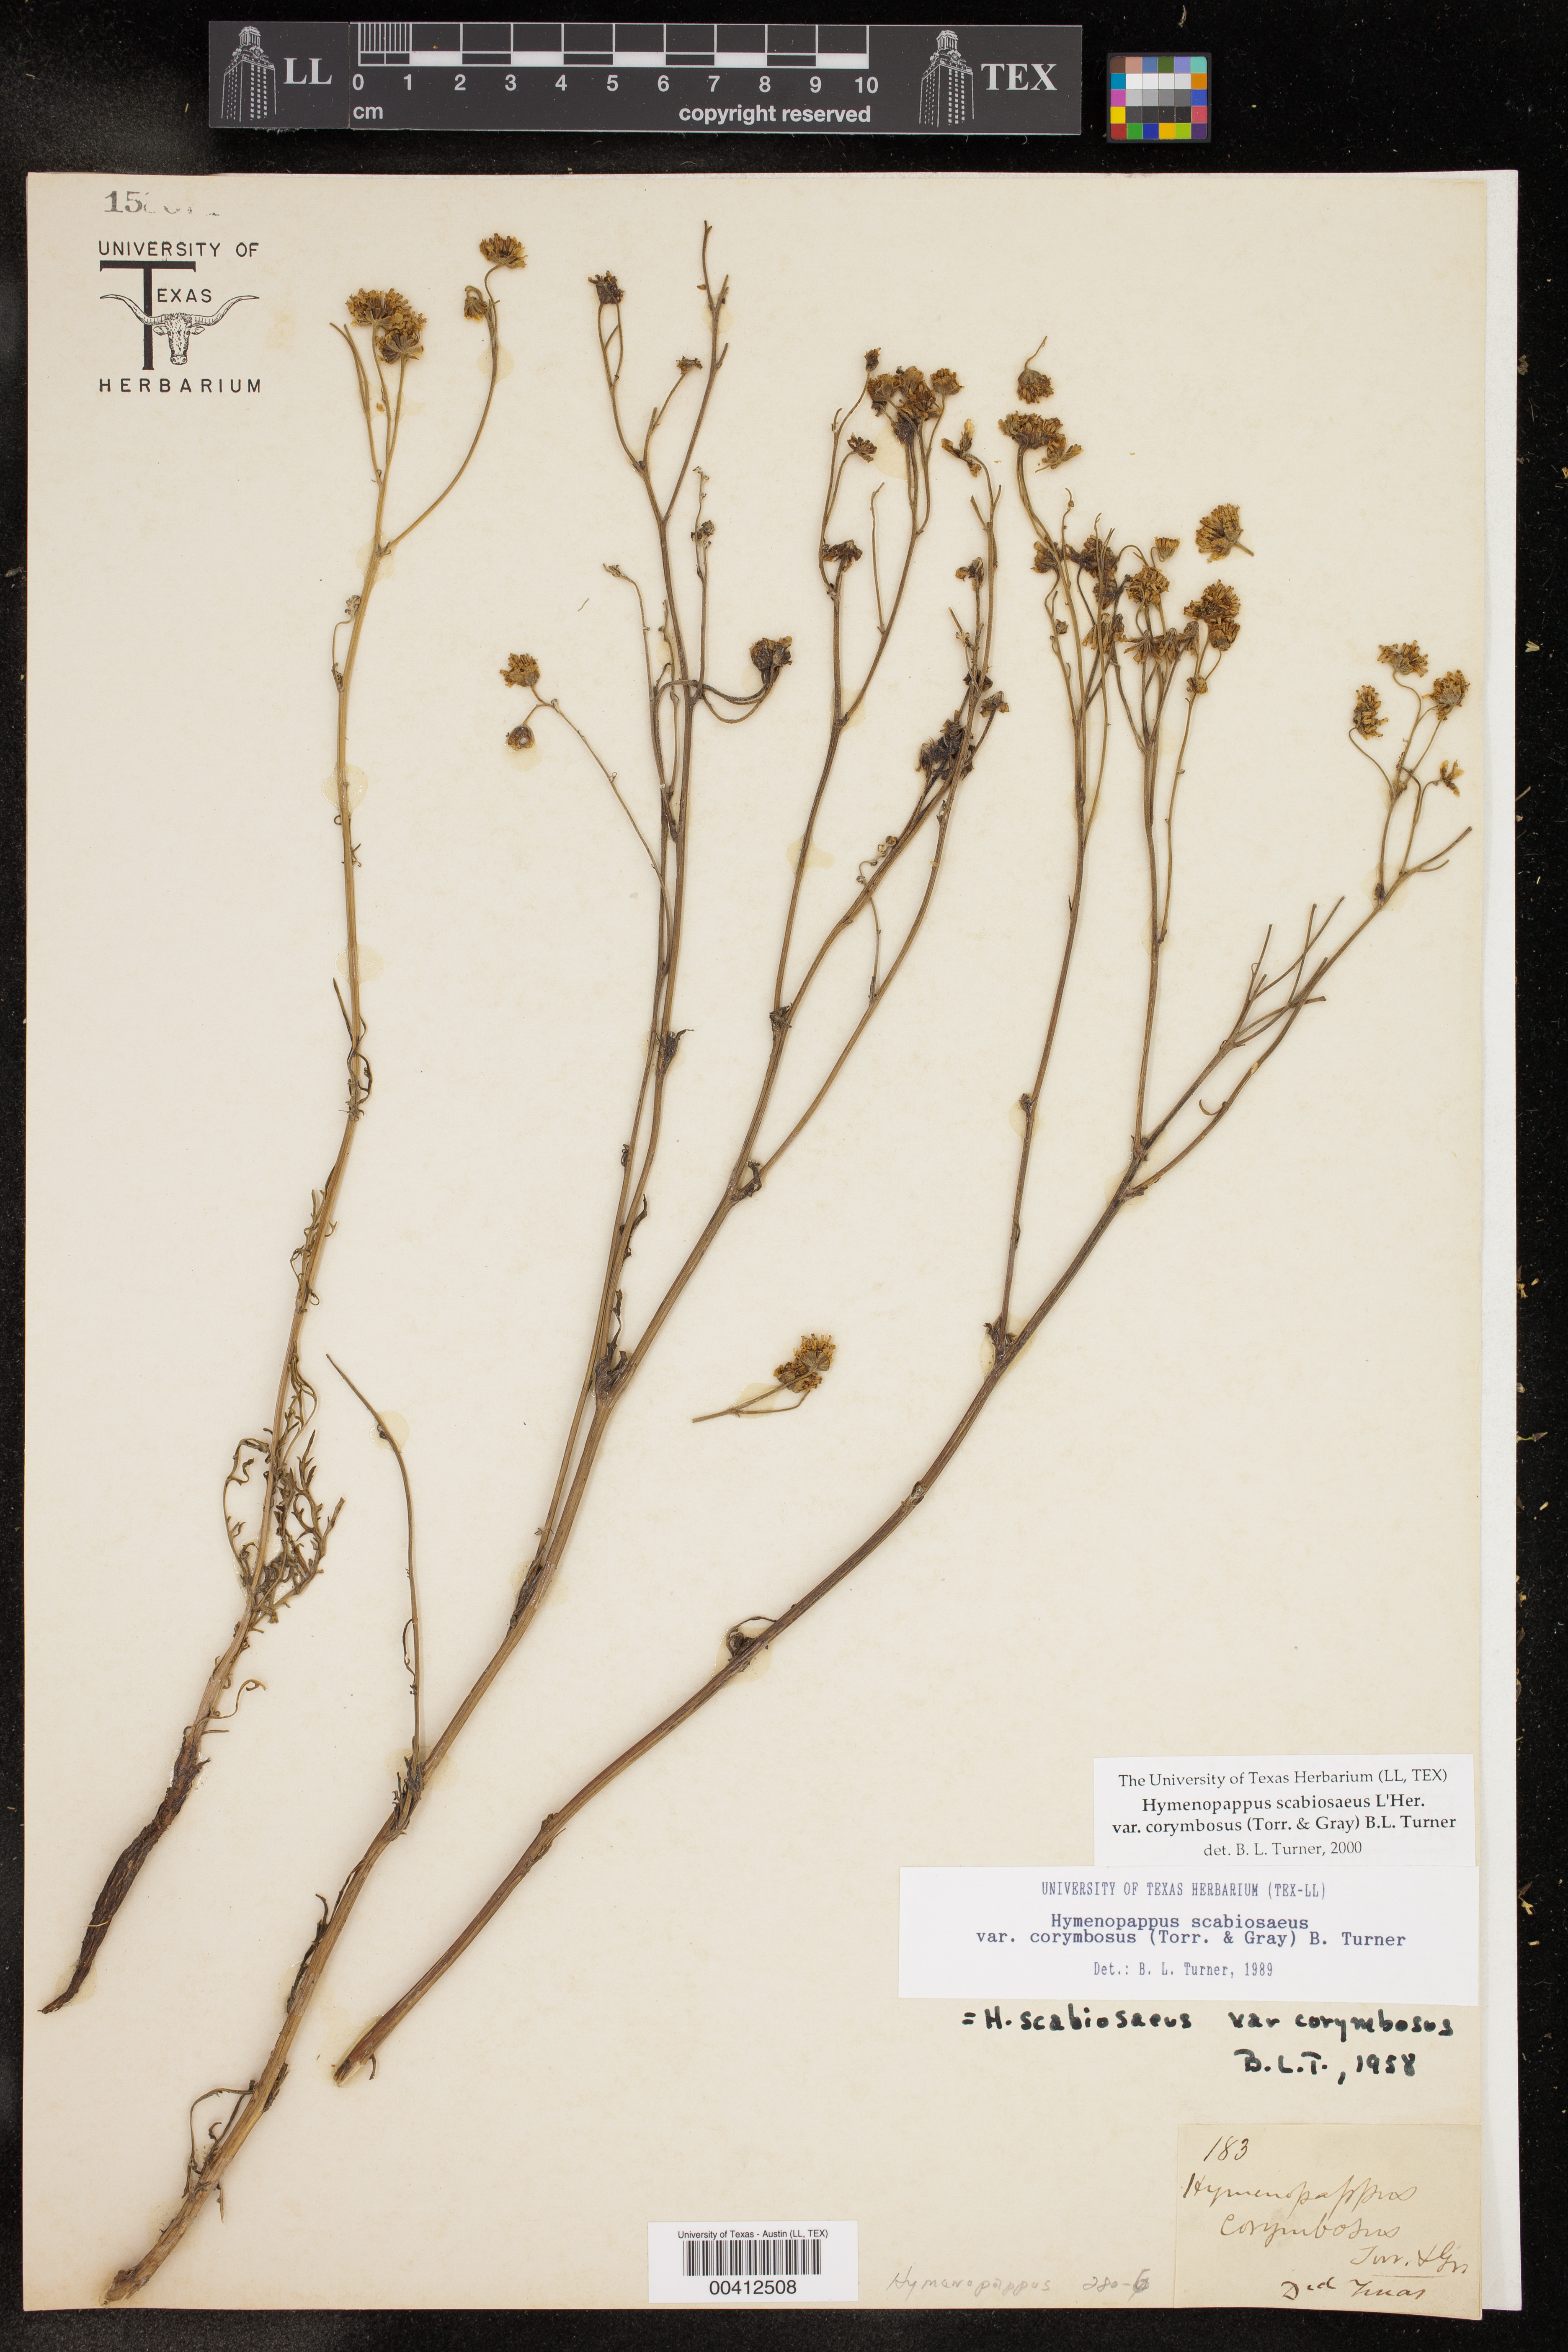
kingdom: Plantae
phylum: Tracheophyta
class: Magnoliopsida
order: Asterales
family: Asteraceae
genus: Hymenopappus
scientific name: Hymenopappus scabiosaeus
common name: Carolina woollywhite
